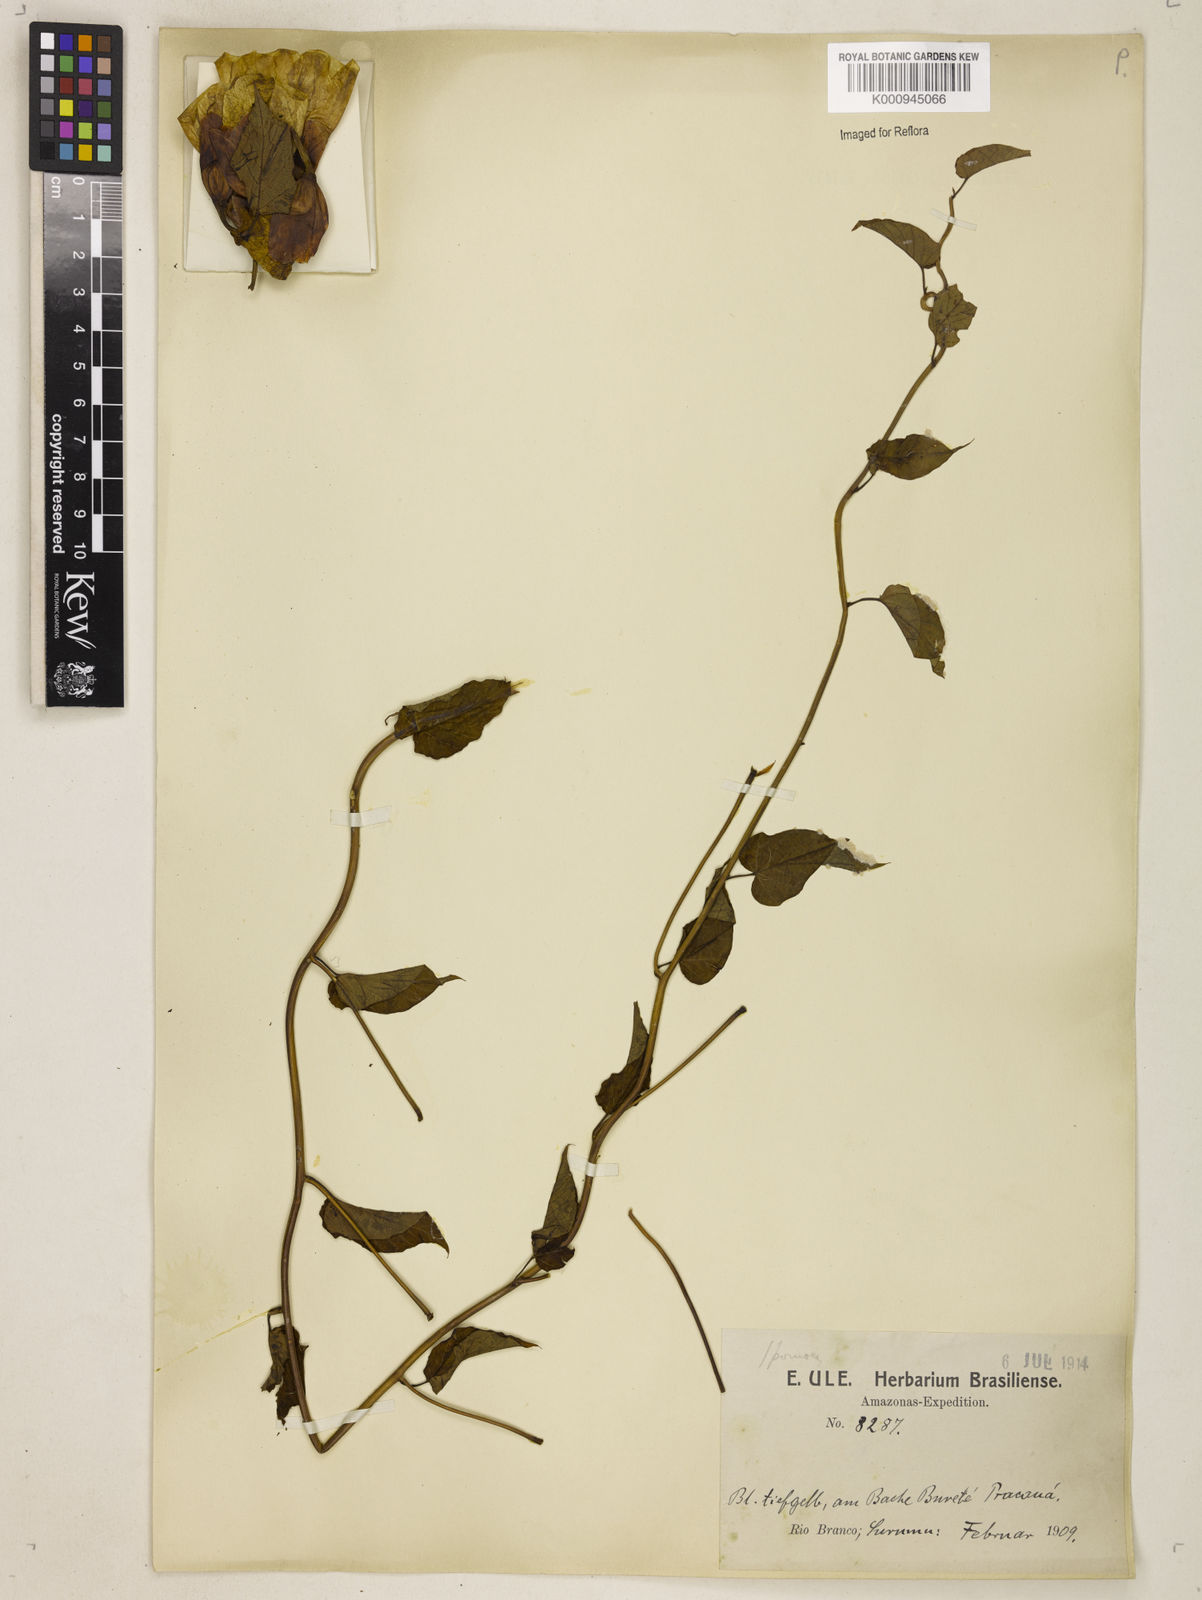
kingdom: Plantae
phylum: Tracheophyta
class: Magnoliopsida
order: Solanales
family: Convolvulaceae
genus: Operculina
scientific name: Operculina hamiltonii
